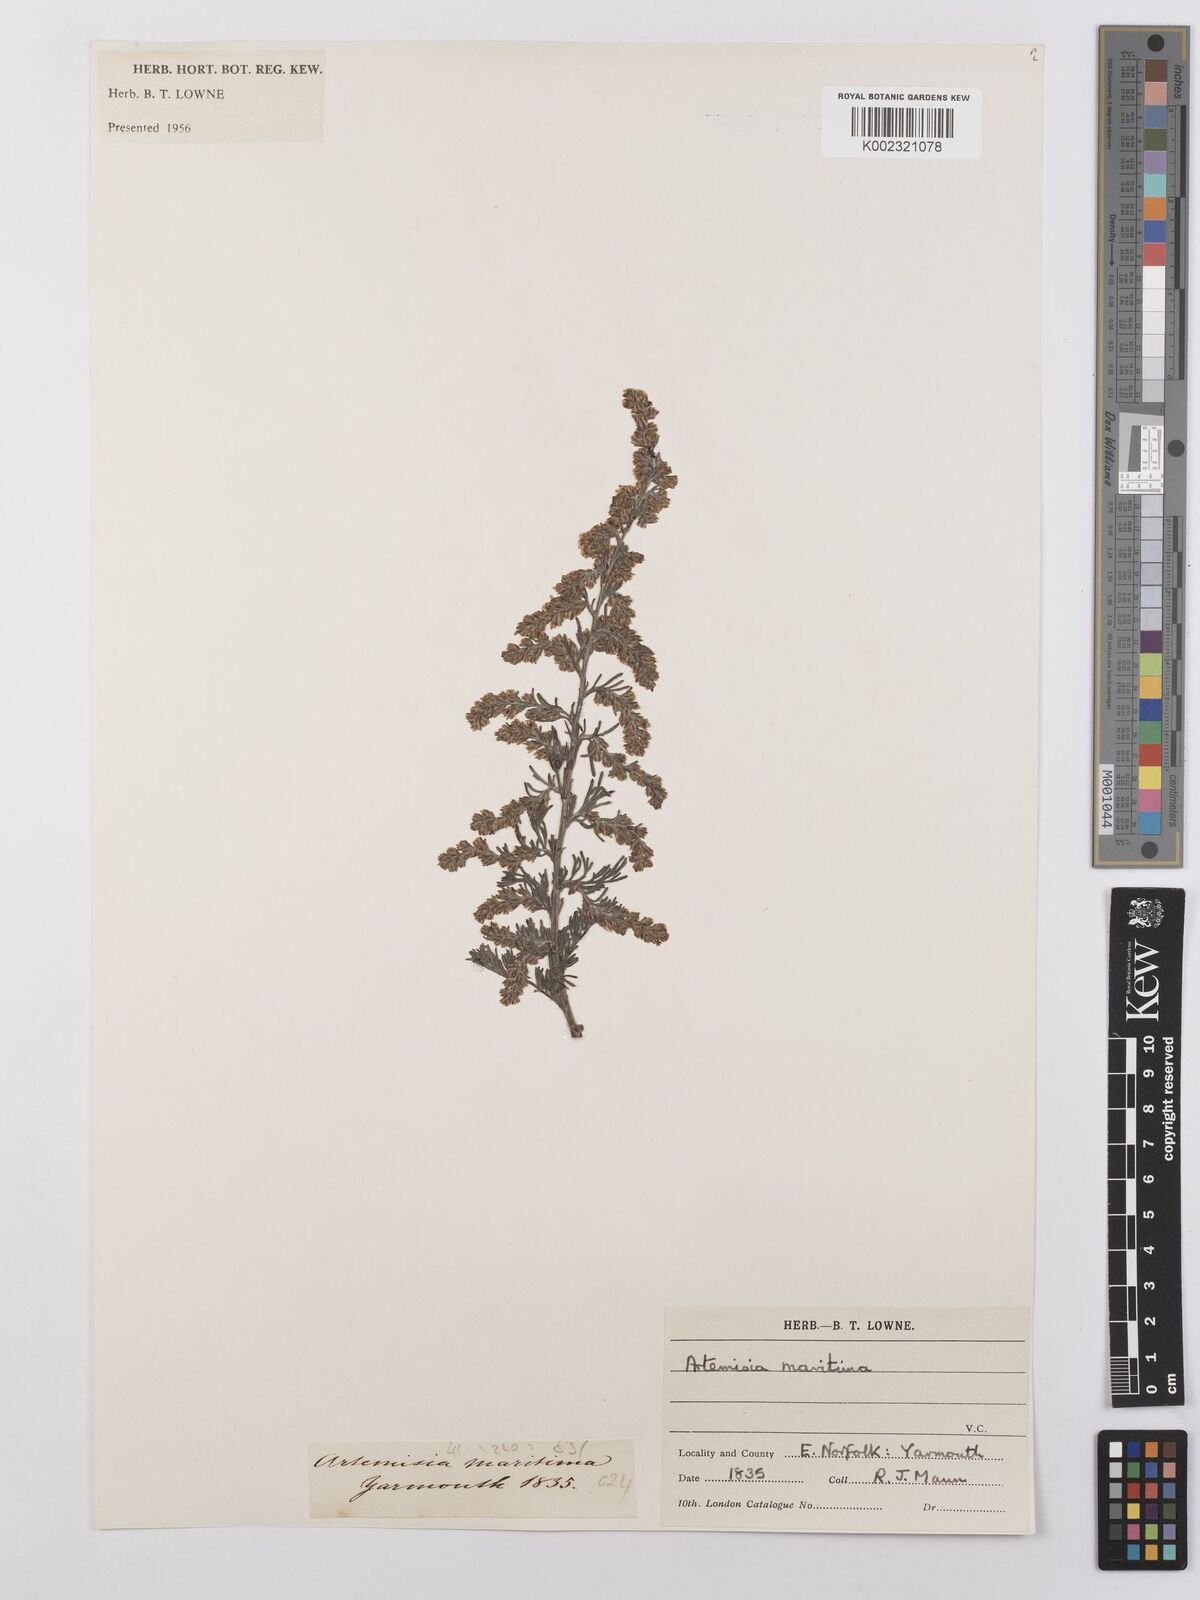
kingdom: Plantae
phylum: Tracheophyta
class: Magnoliopsida
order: Asterales
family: Asteraceae
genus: Artemisia
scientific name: Artemisia maritima
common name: Wormseed
